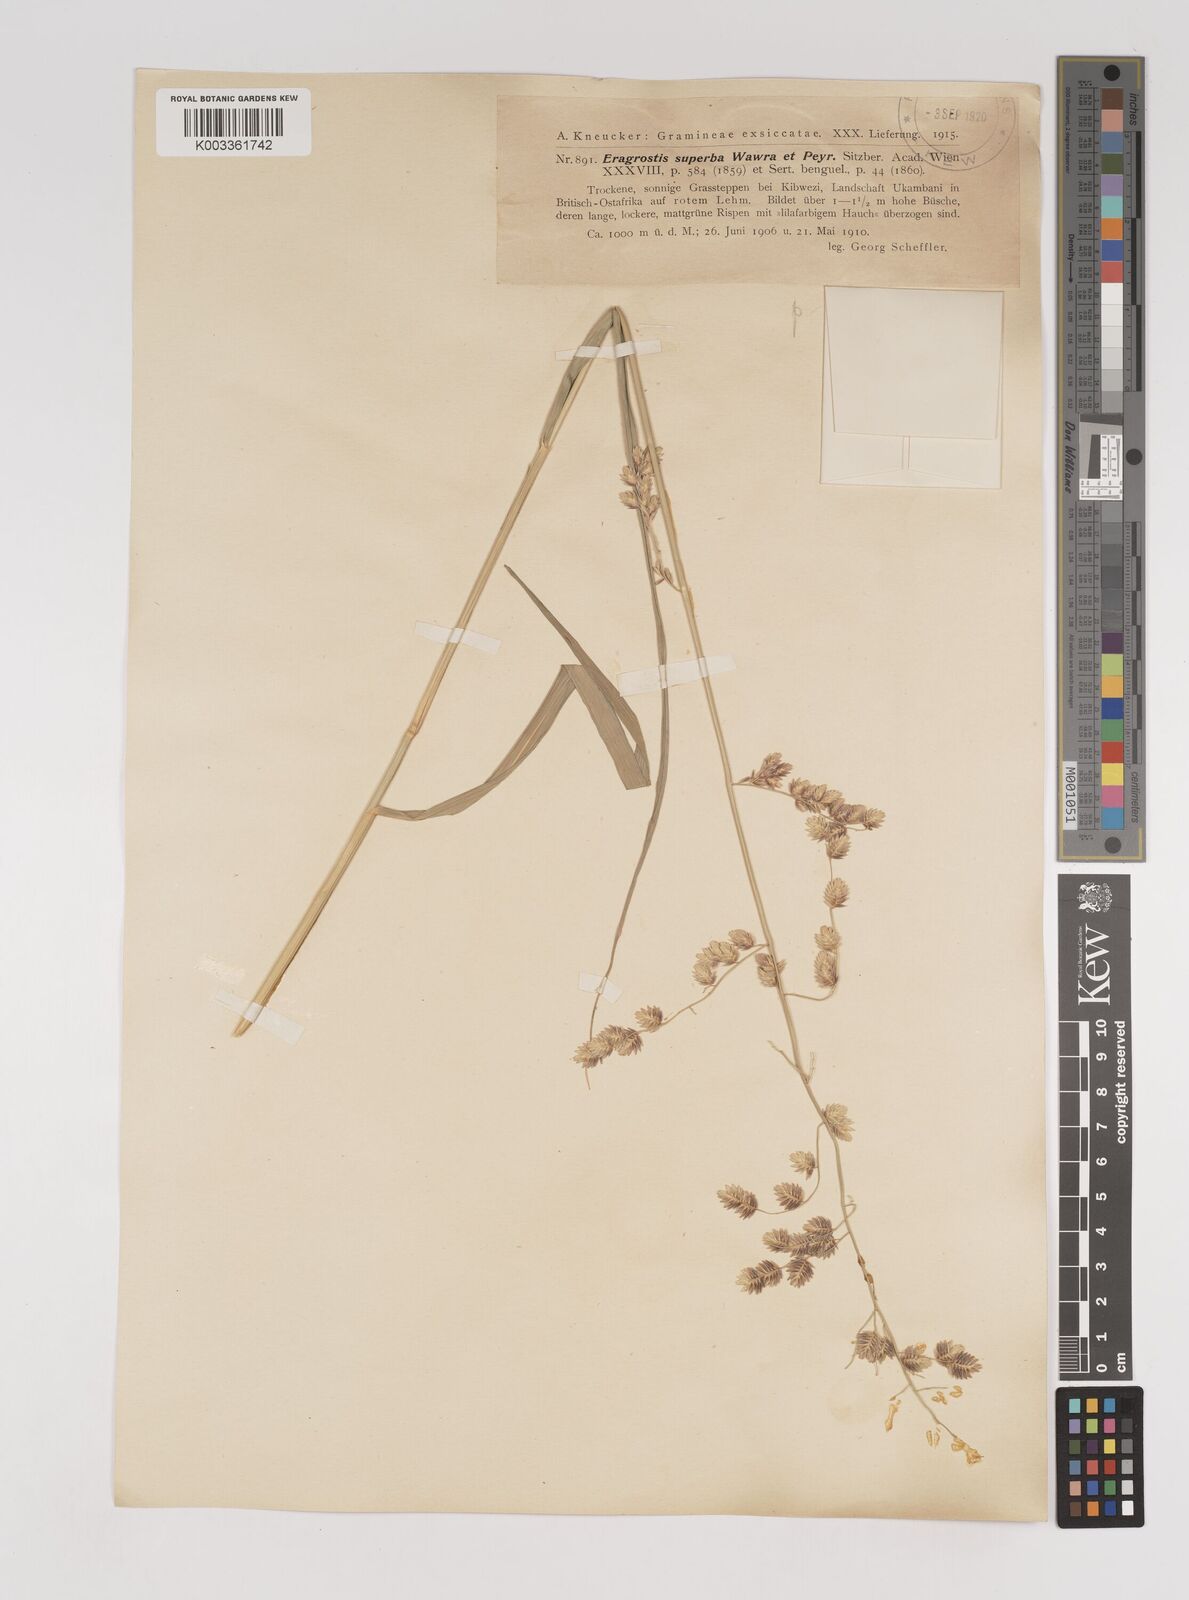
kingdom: Plantae
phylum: Tracheophyta
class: Liliopsida
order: Poales
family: Poaceae
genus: Eragrostis
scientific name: Eragrostis superba
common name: Wilman lovegrass
